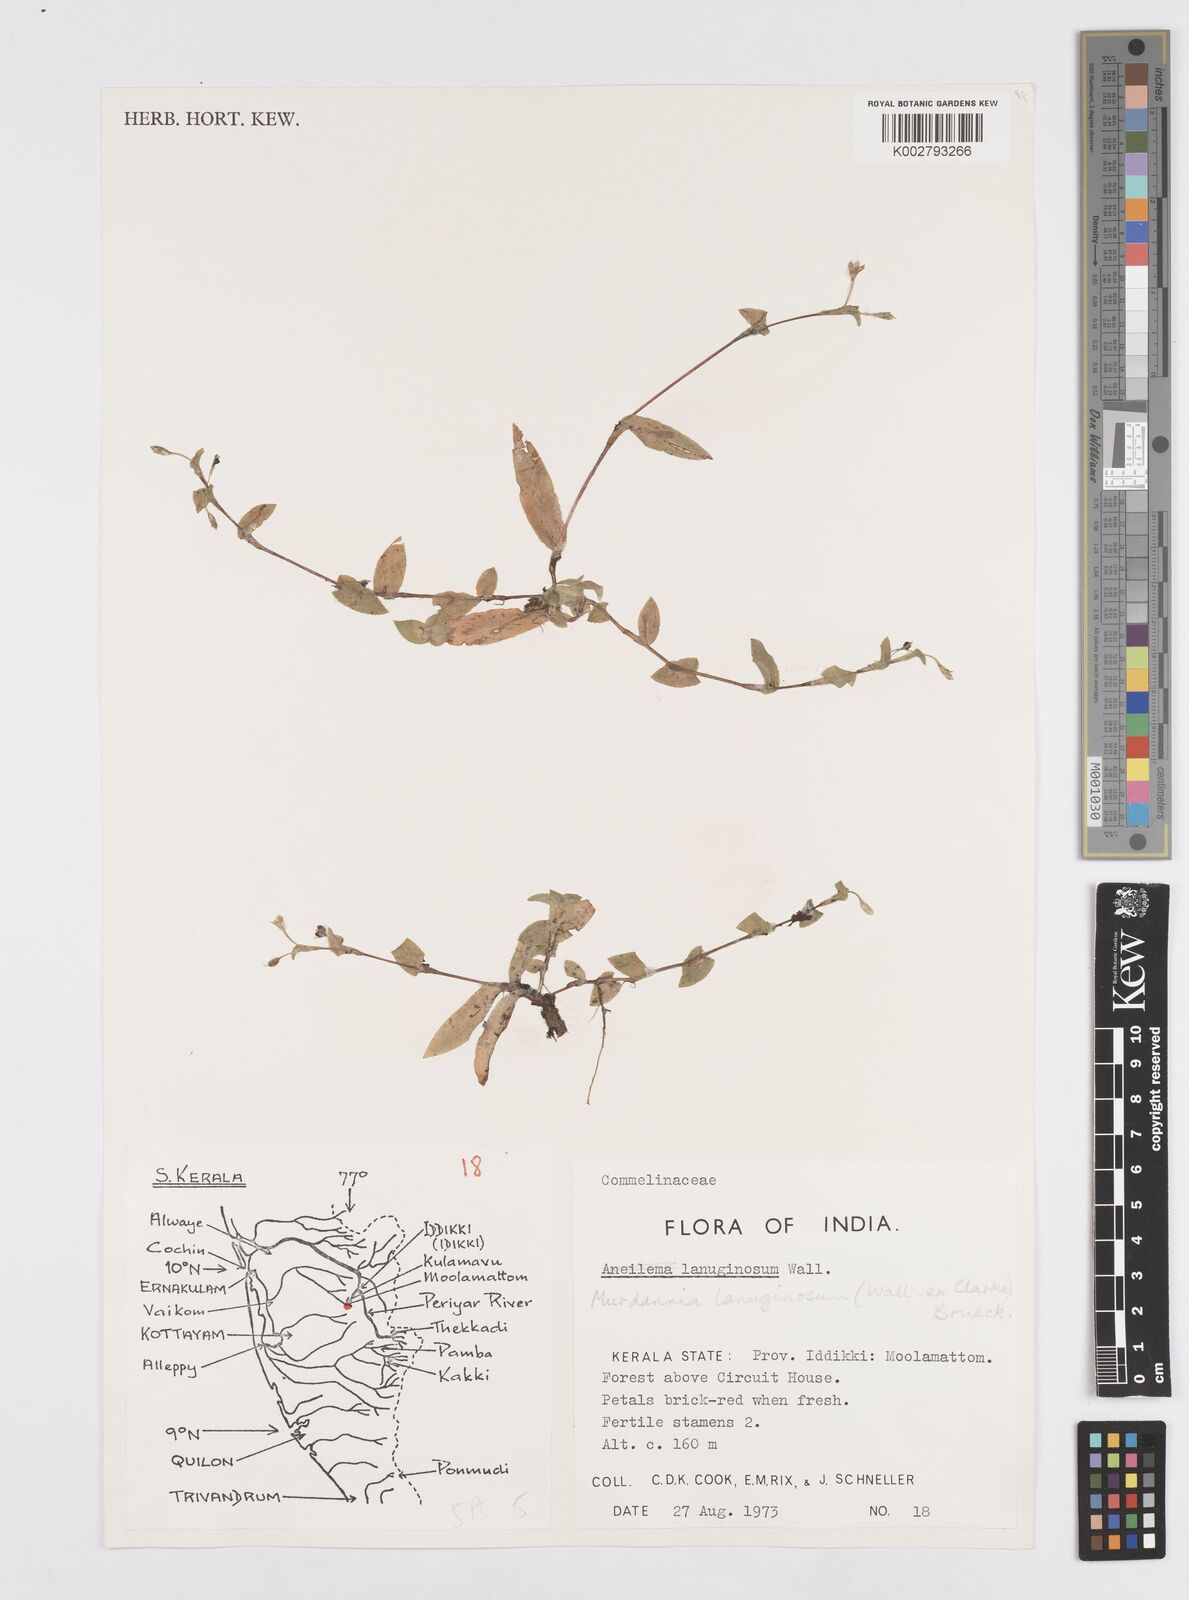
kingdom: Plantae
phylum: Tracheophyta
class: Liliopsida
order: Commelinales
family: Commelinaceae
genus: Murdannia
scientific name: Murdannia lanuginosa
